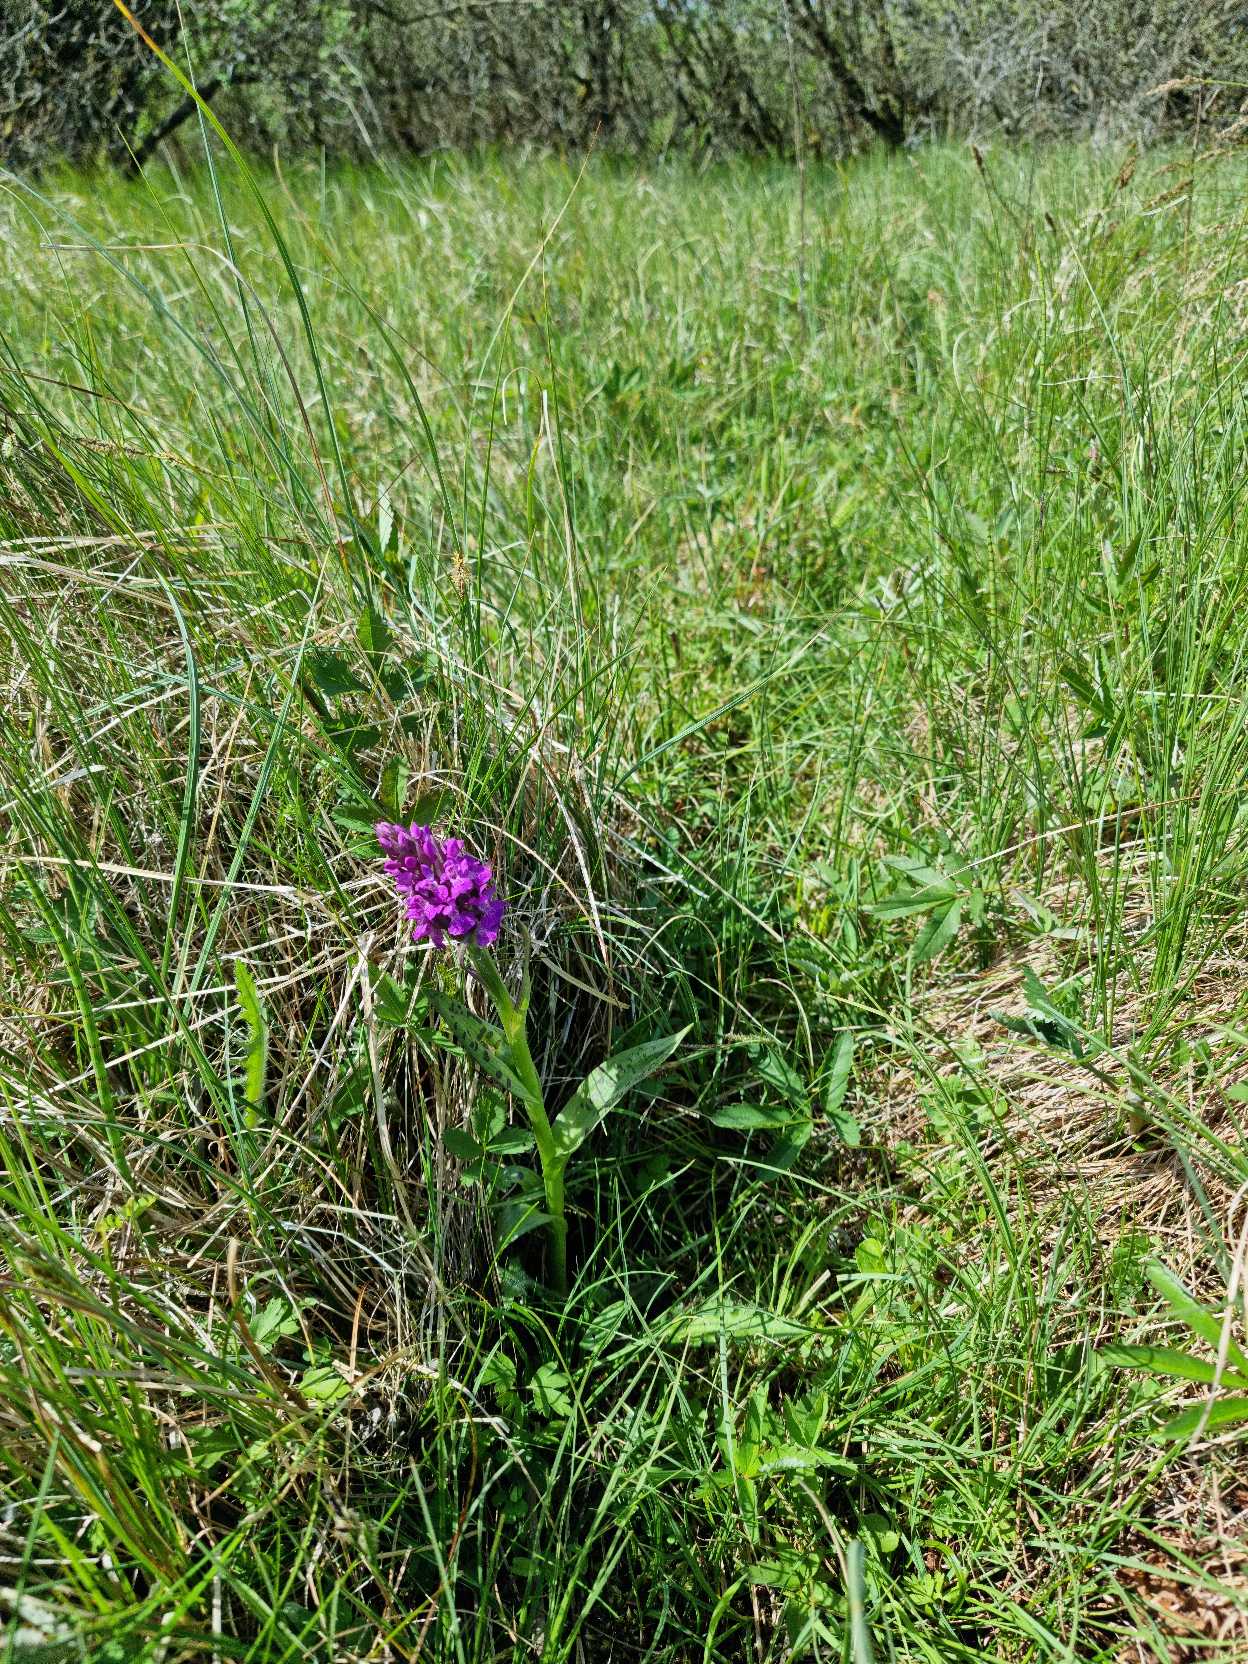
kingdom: Plantae
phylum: Tracheophyta
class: Liliopsida
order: Asparagales
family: Orchidaceae
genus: Dactylorhiza
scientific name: Dactylorhiza majalis
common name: Maj-gøgeurt
